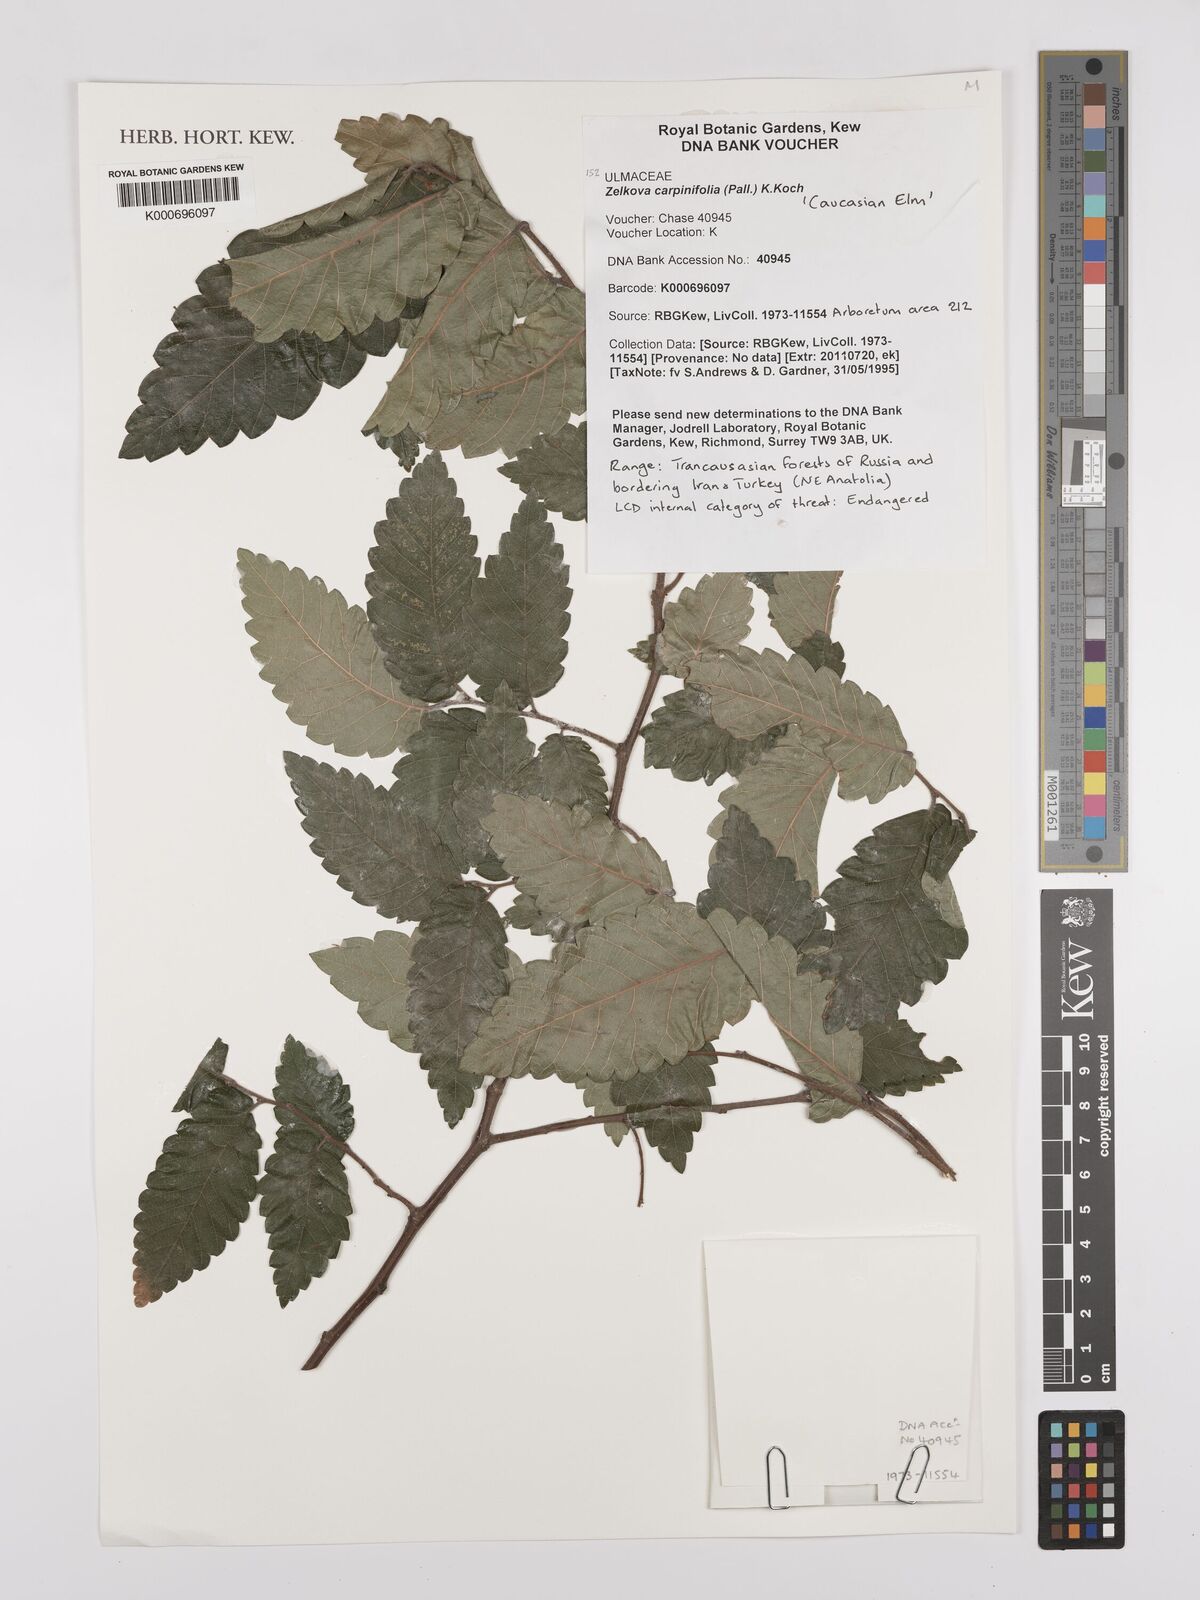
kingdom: Plantae
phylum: Tracheophyta
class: Magnoliopsida
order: Rosales
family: Ulmaceae
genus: Zelkova
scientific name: Zelkova carpinifolia
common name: Caucasian elm
